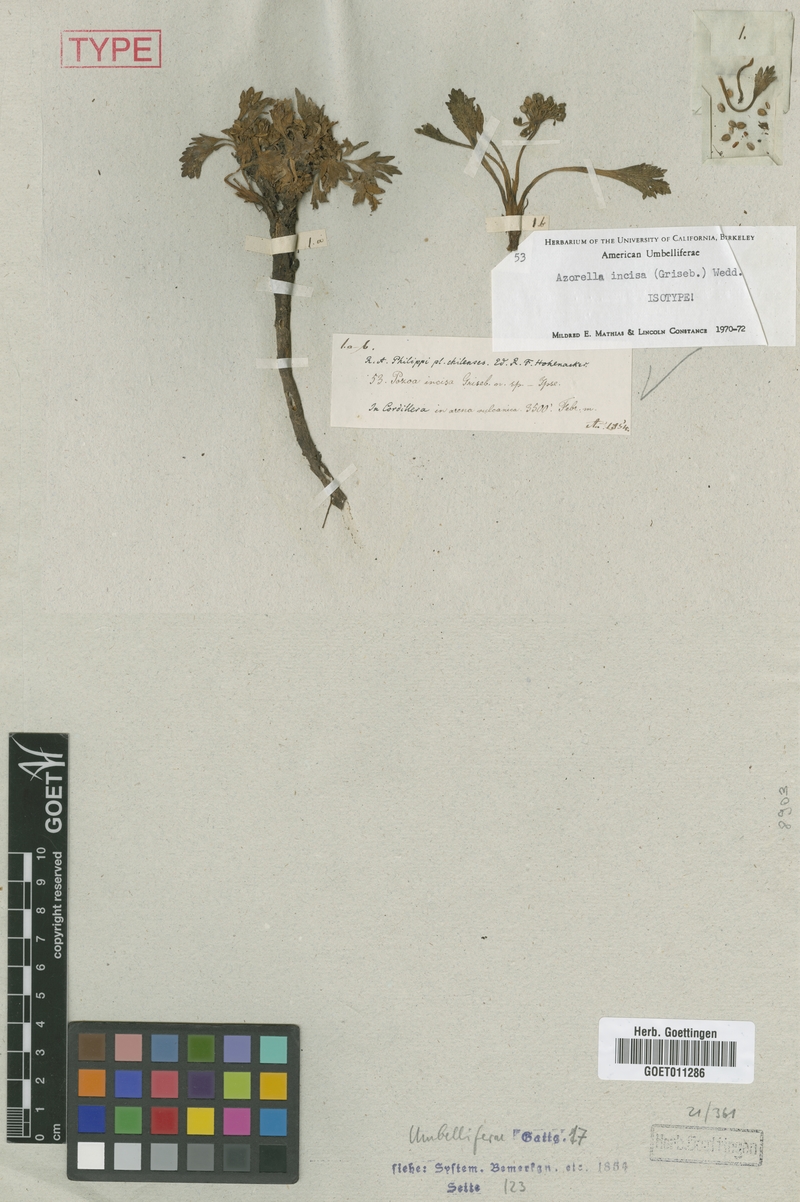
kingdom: Plantae
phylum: Tracheophyta
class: Magnoliopsida
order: Apiales
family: Apiaceae
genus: Azorella
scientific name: Azorella diversifolia
